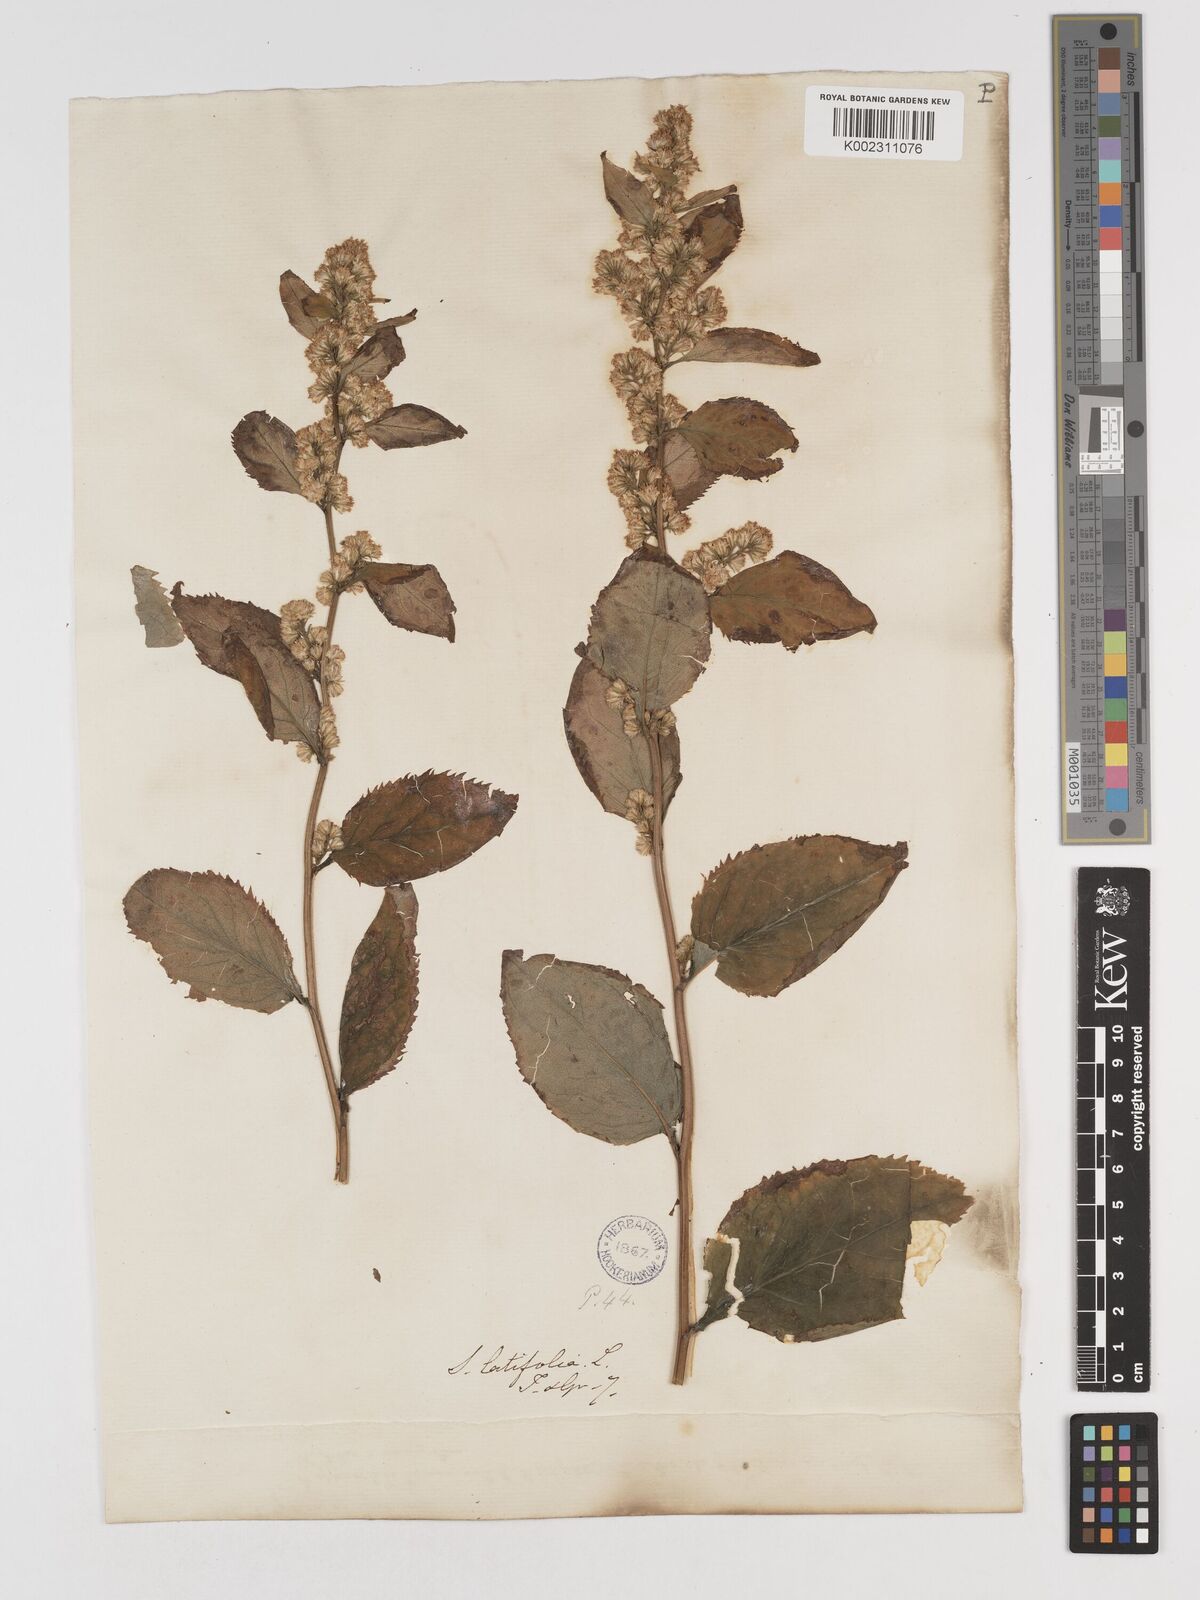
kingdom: Plantae
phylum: Tracheophyta
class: Magnoliopsida
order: Asterales
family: Asteraceae
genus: Solidago
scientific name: Solidago flexicaulis
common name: Zig-zag goldenrod
